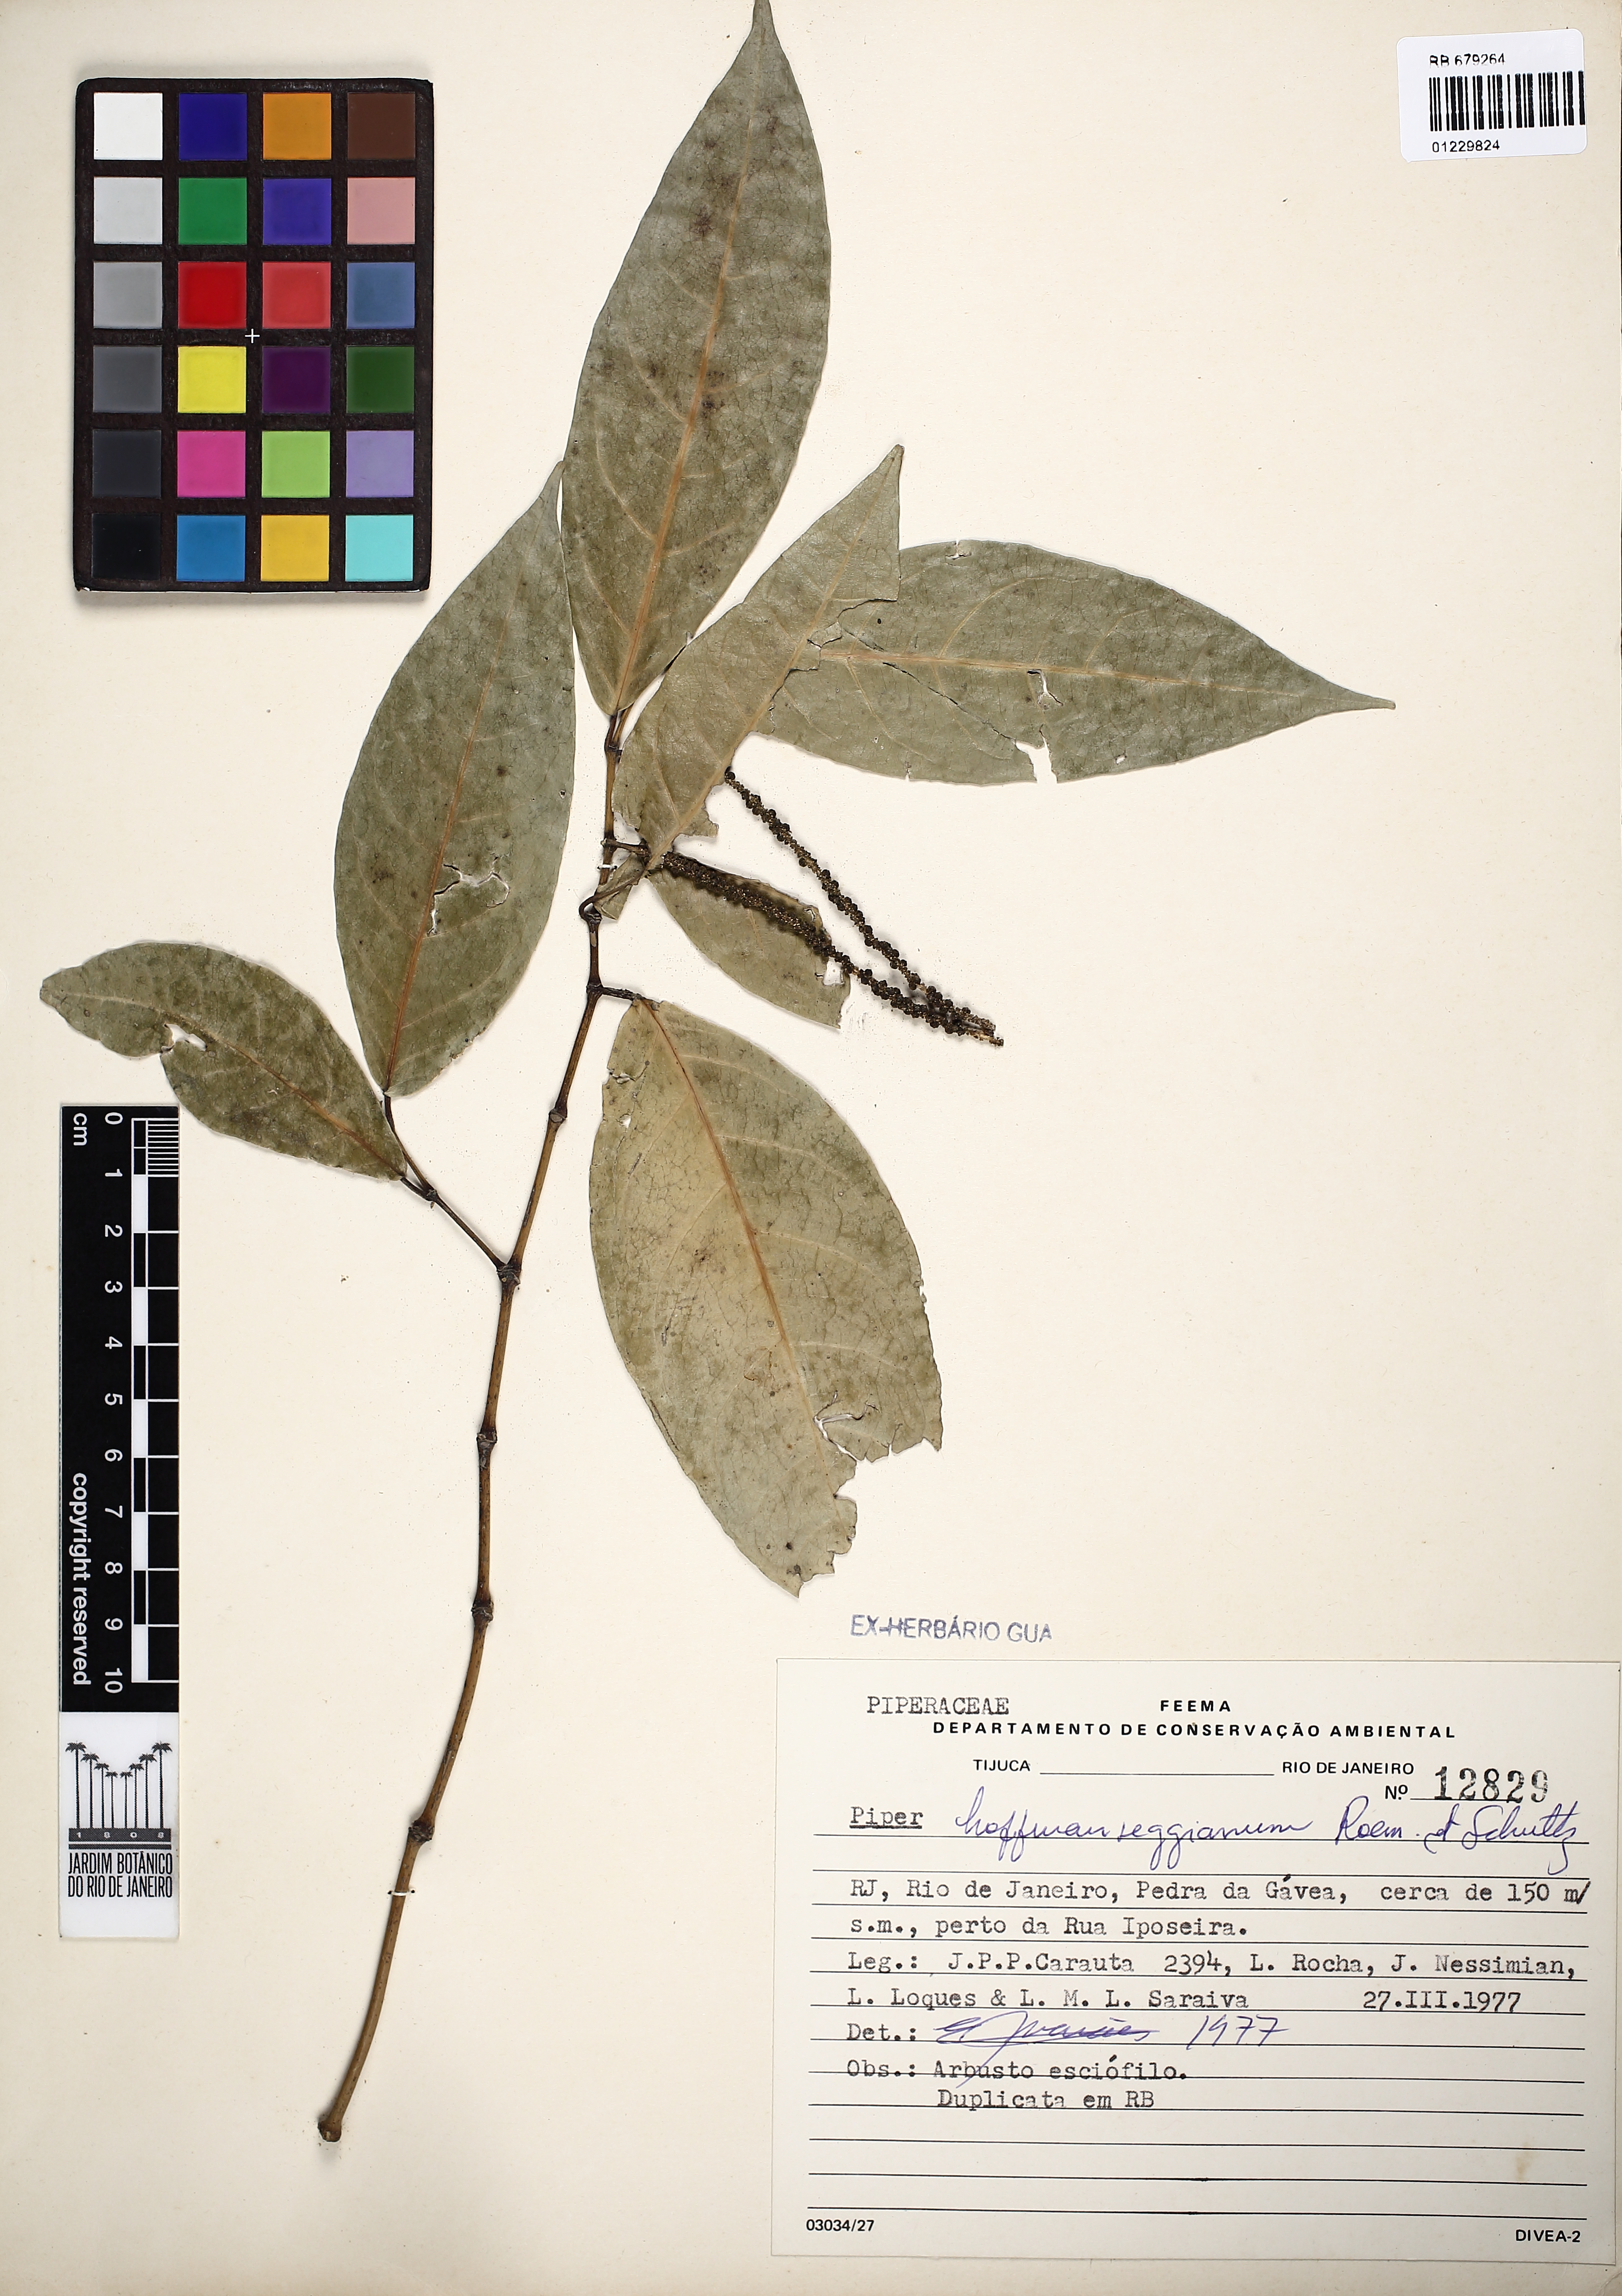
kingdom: Plantae
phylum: Tracheophyta
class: Magnoliopsida
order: Piperales
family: Piperaceae
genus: Piper
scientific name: Piper hoffmannseggianum
